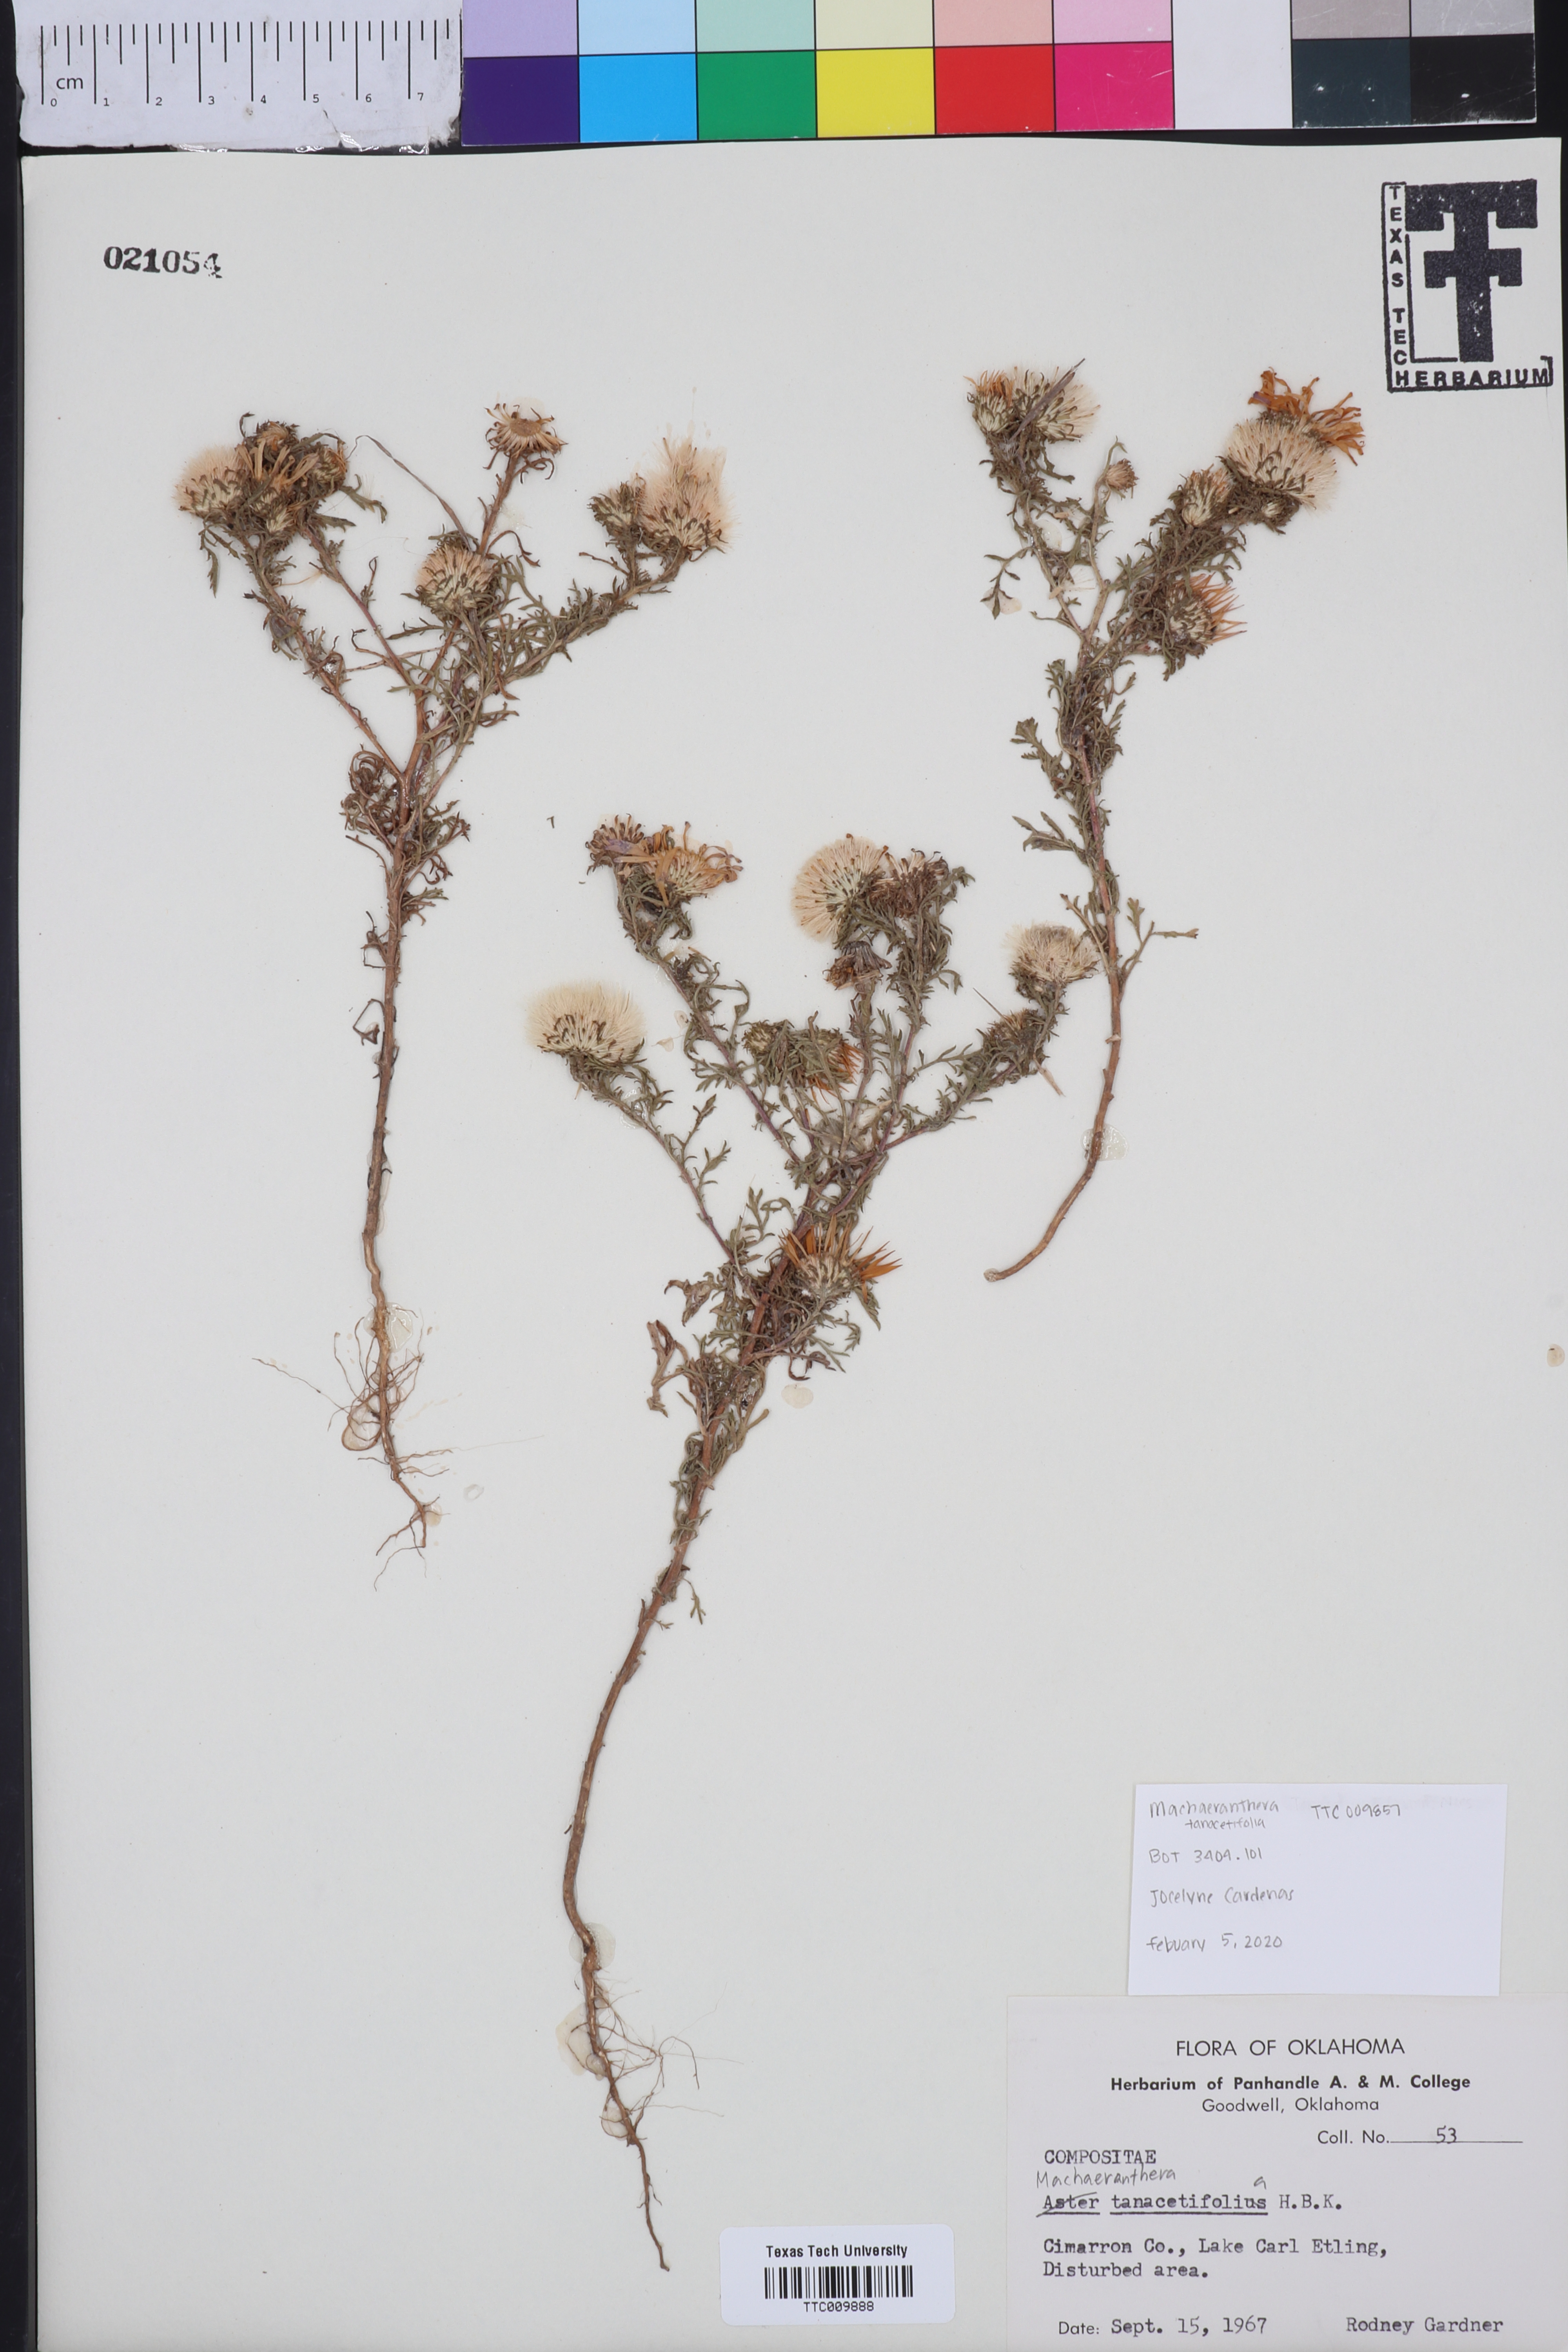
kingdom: Plantae
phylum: Tracheophyta
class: Magnoliopsida
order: Asterales
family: Asteraceae
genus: Machaeranthera
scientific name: Machaeranthera tanacetifolia
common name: Tansy-aster
